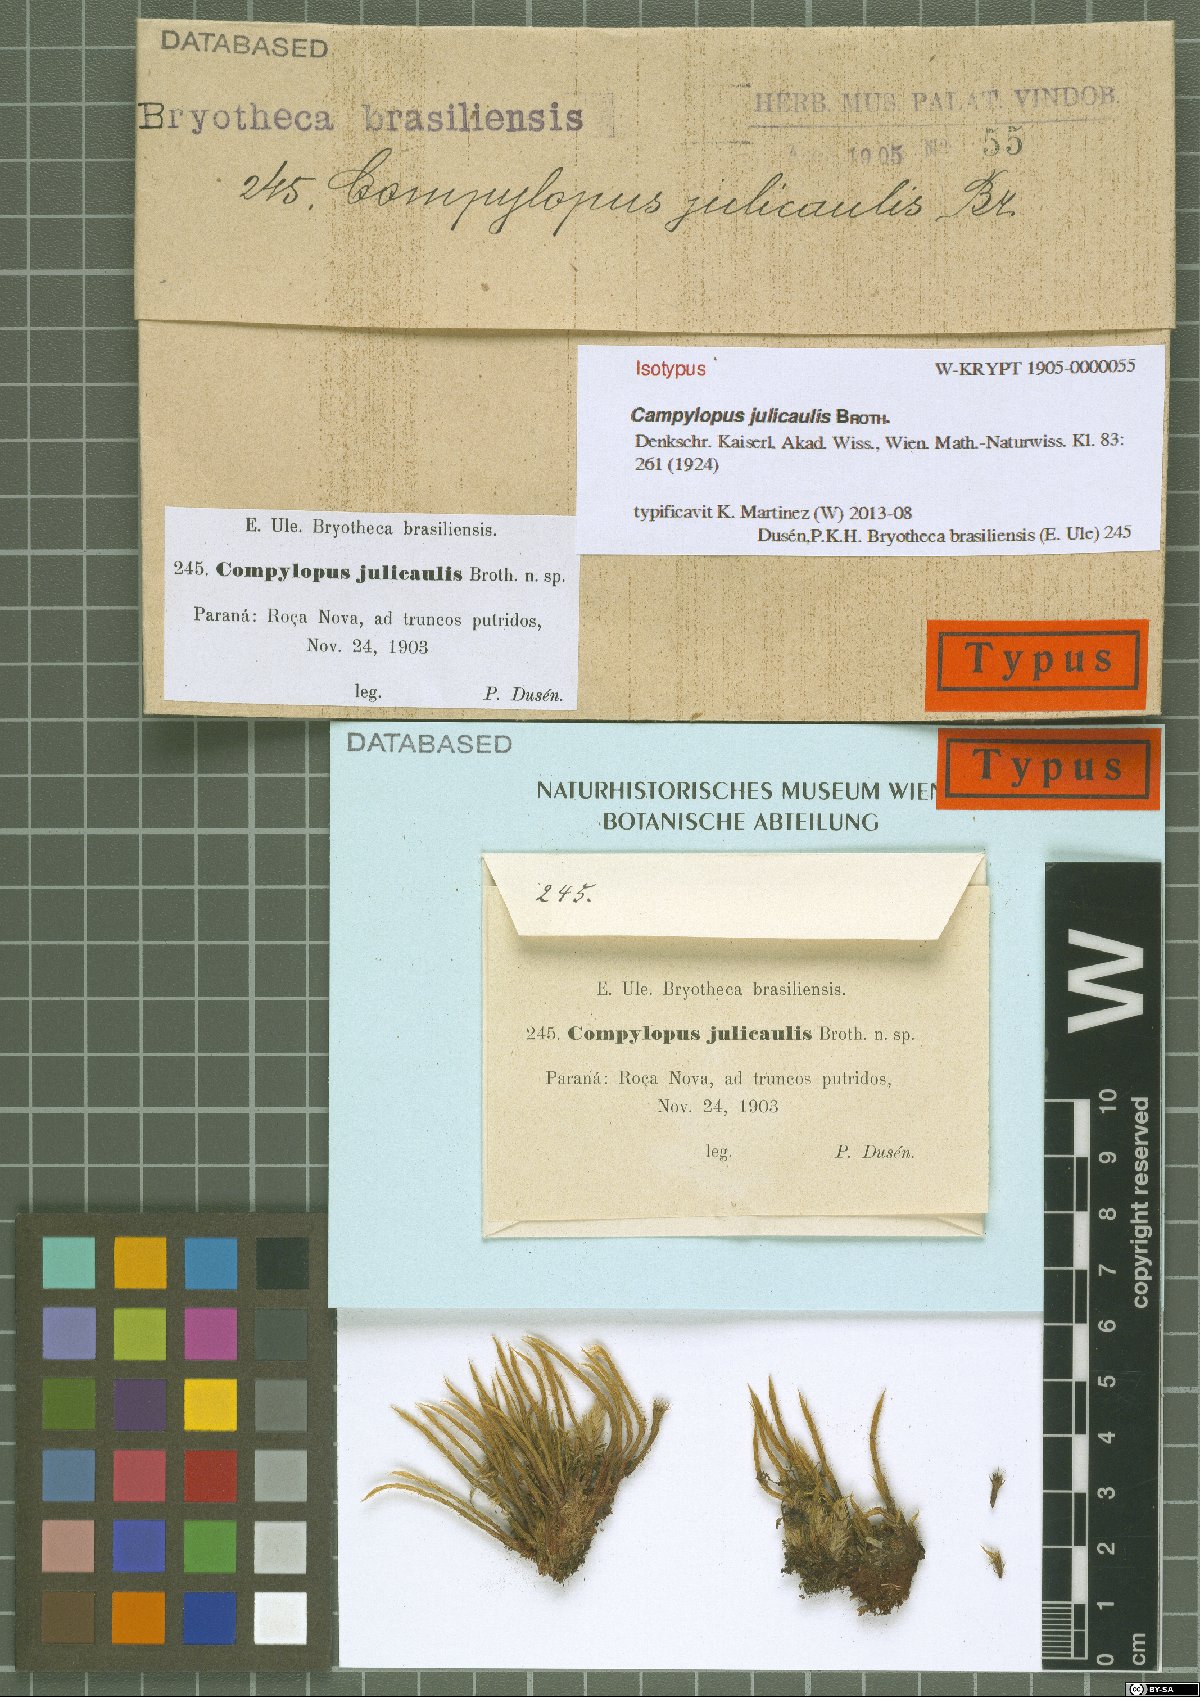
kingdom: Plantae
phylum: Bryophyta
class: Bryopsida
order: Dicranales
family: Leucobryaceae
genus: Campylopus
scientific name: Campylopus julicaulis
